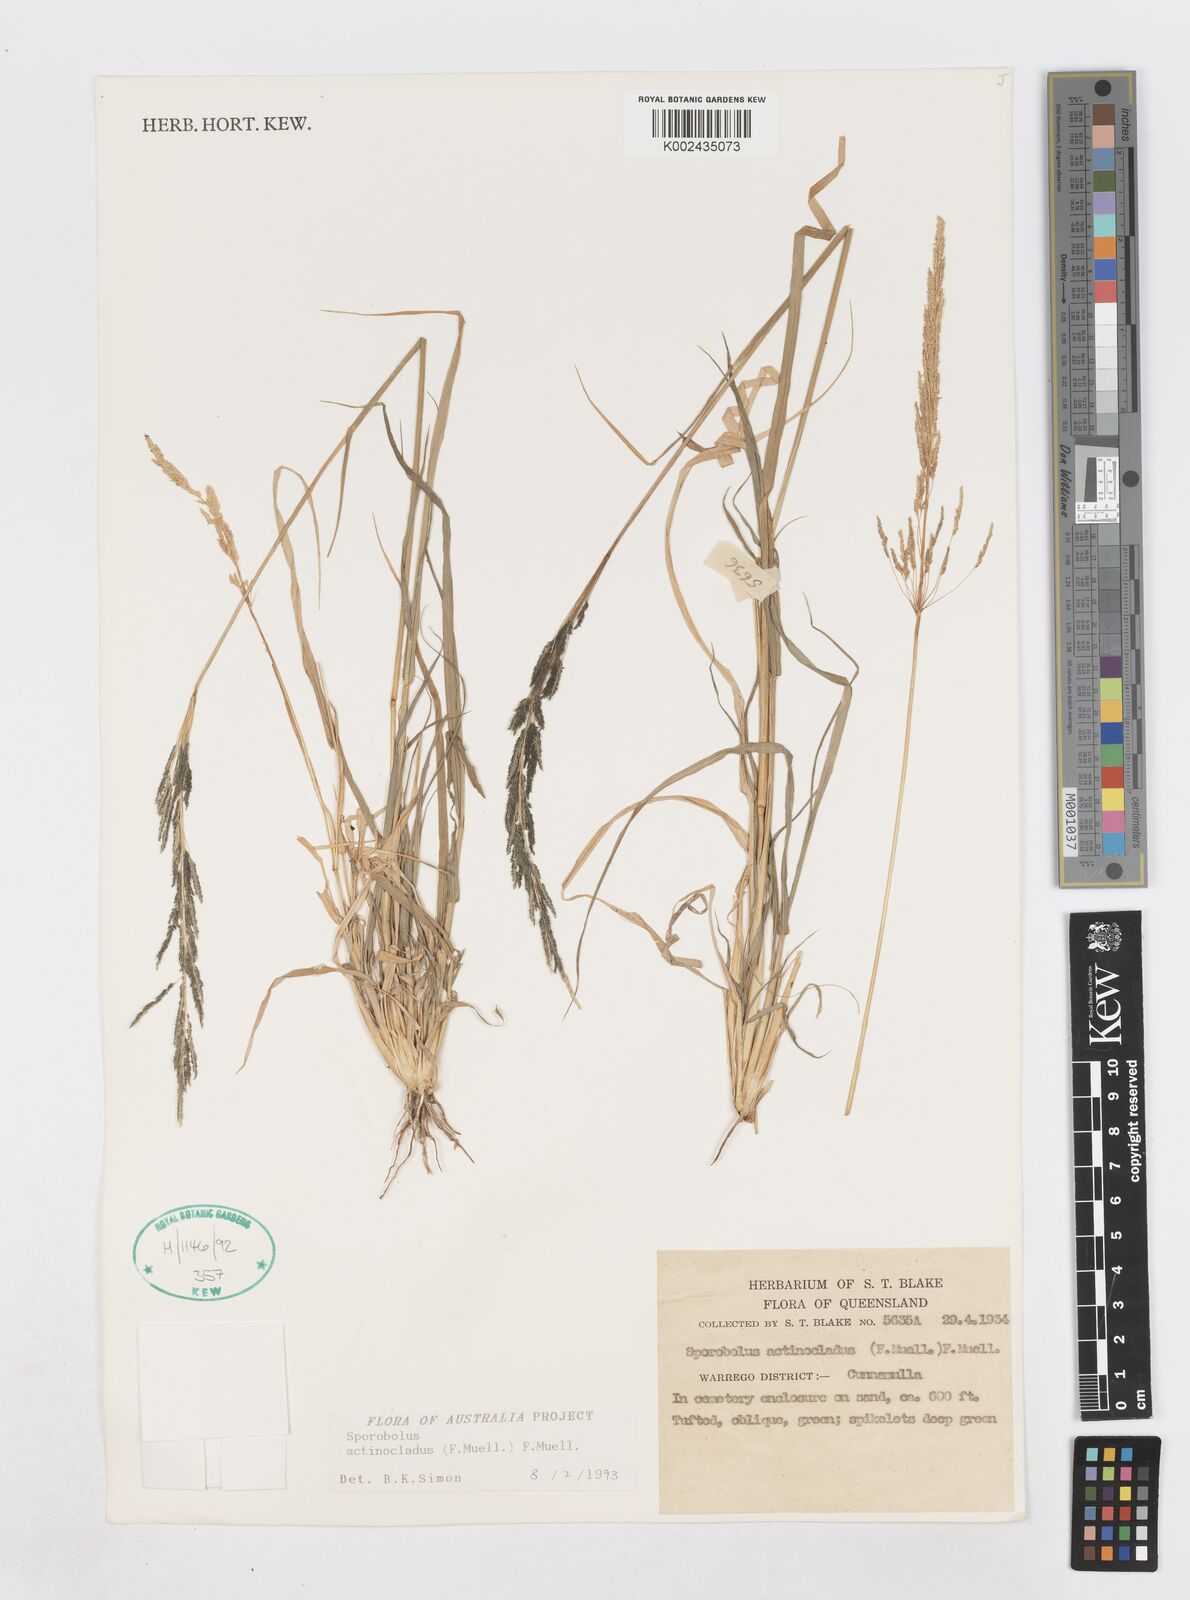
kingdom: Plantae
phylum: Tracheophyta
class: Liliopsida
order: Poales
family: Poaceae
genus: Sporobolus
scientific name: Sporobolus actinocladus
